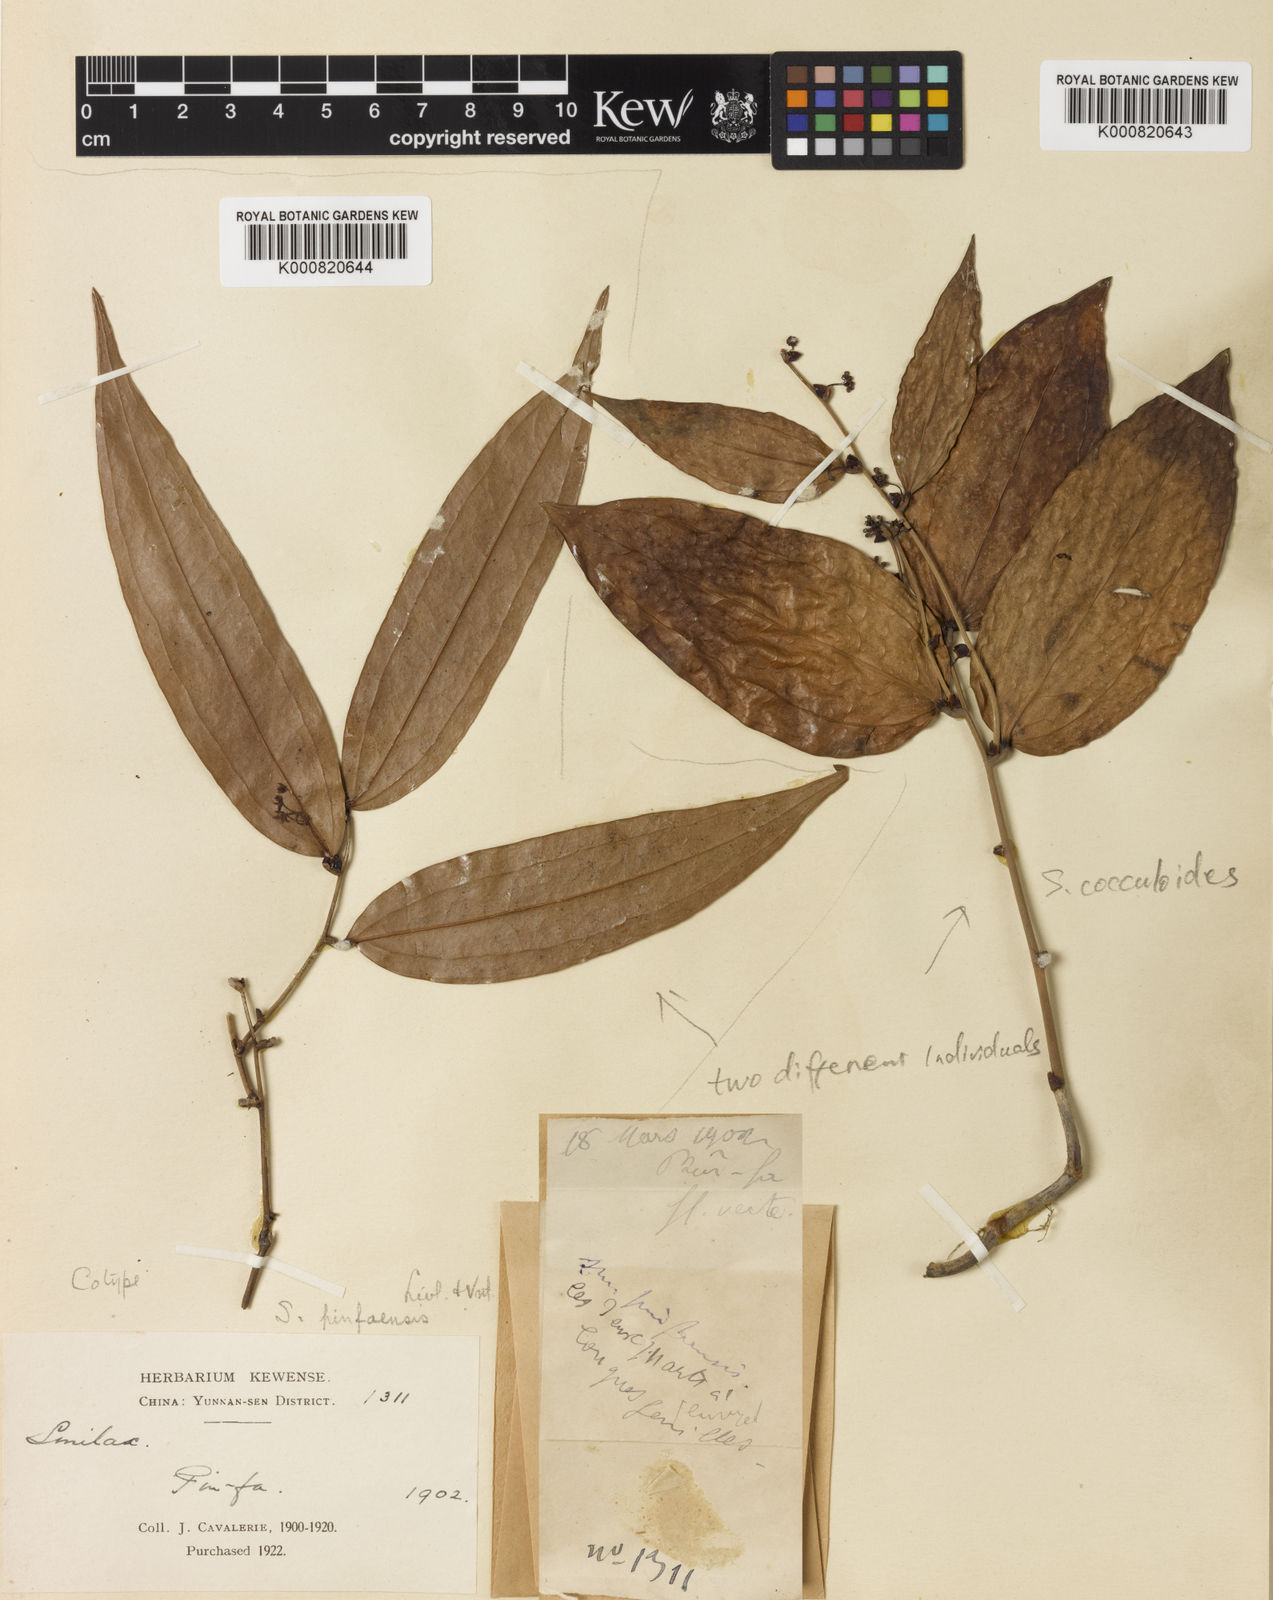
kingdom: Plantae
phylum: Tracheophyta
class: Liliopsida
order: Liliales
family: Smilacaceae
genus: Smilax
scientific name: Smilax
